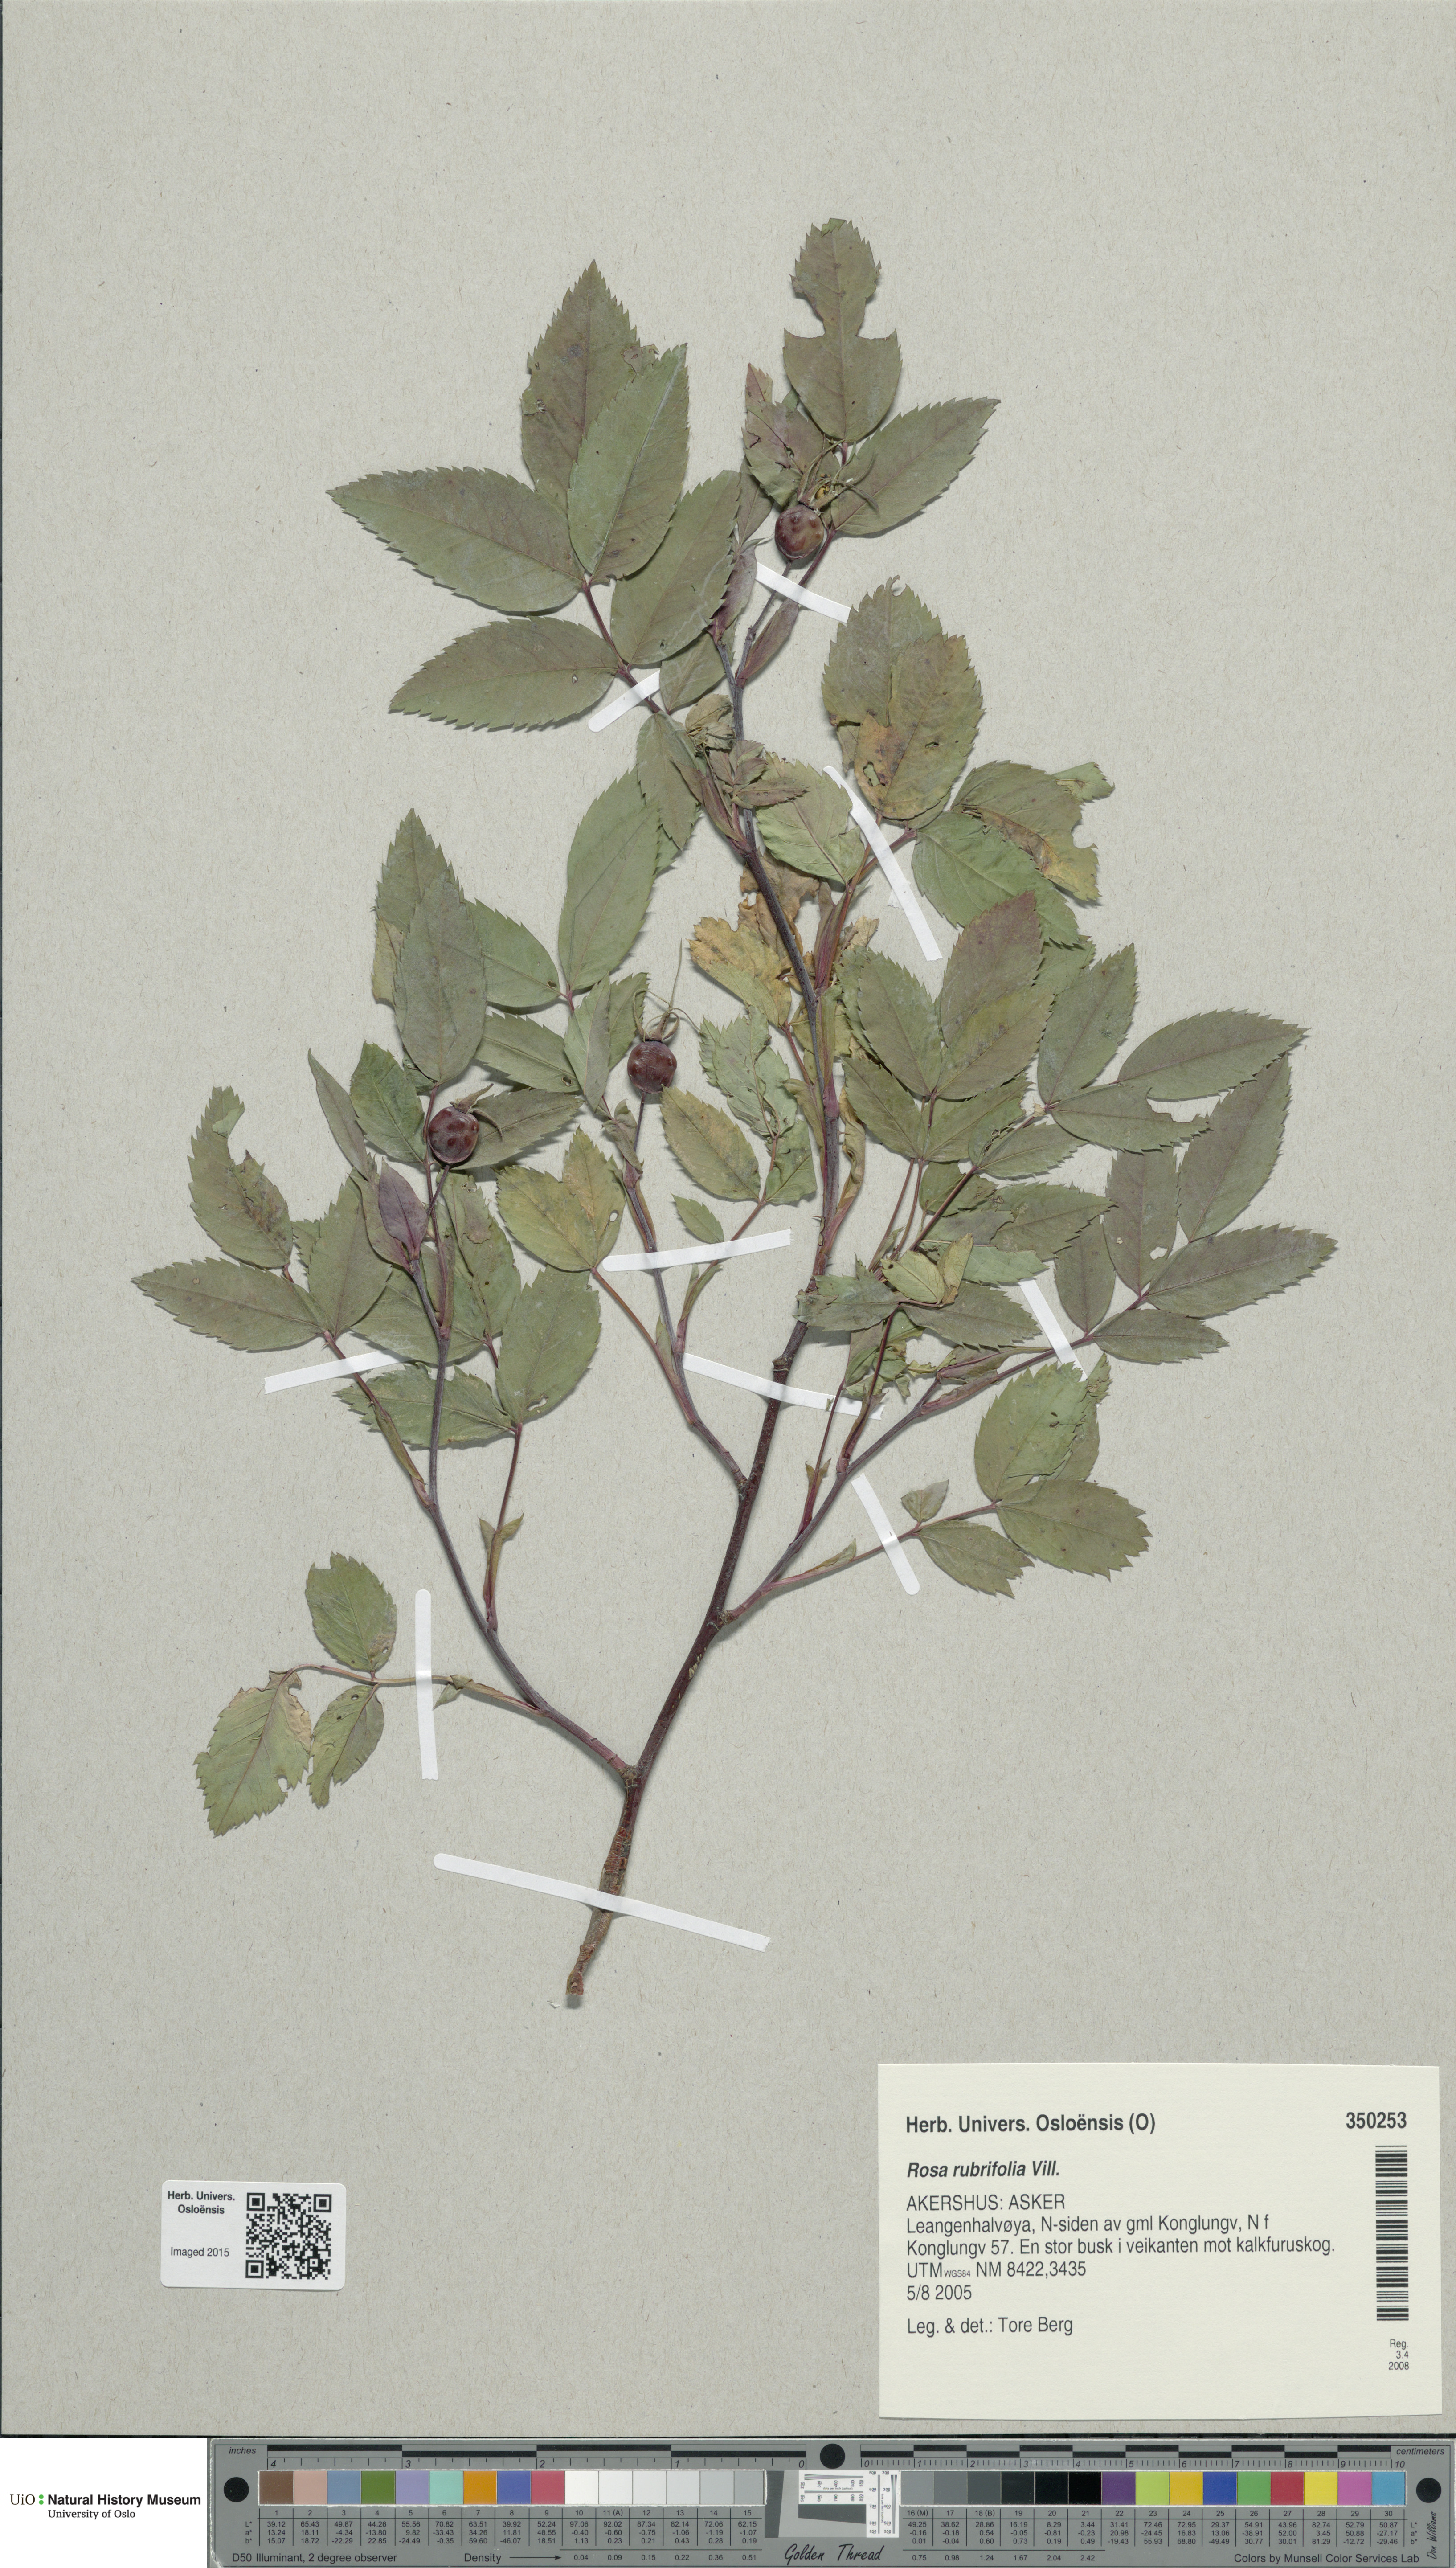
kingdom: Plantae
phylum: Tracheophyta
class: Magnoliopsida
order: Rosales
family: Rosaceae
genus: Rosa
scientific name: Rosa glauca
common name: Redleaf rose
